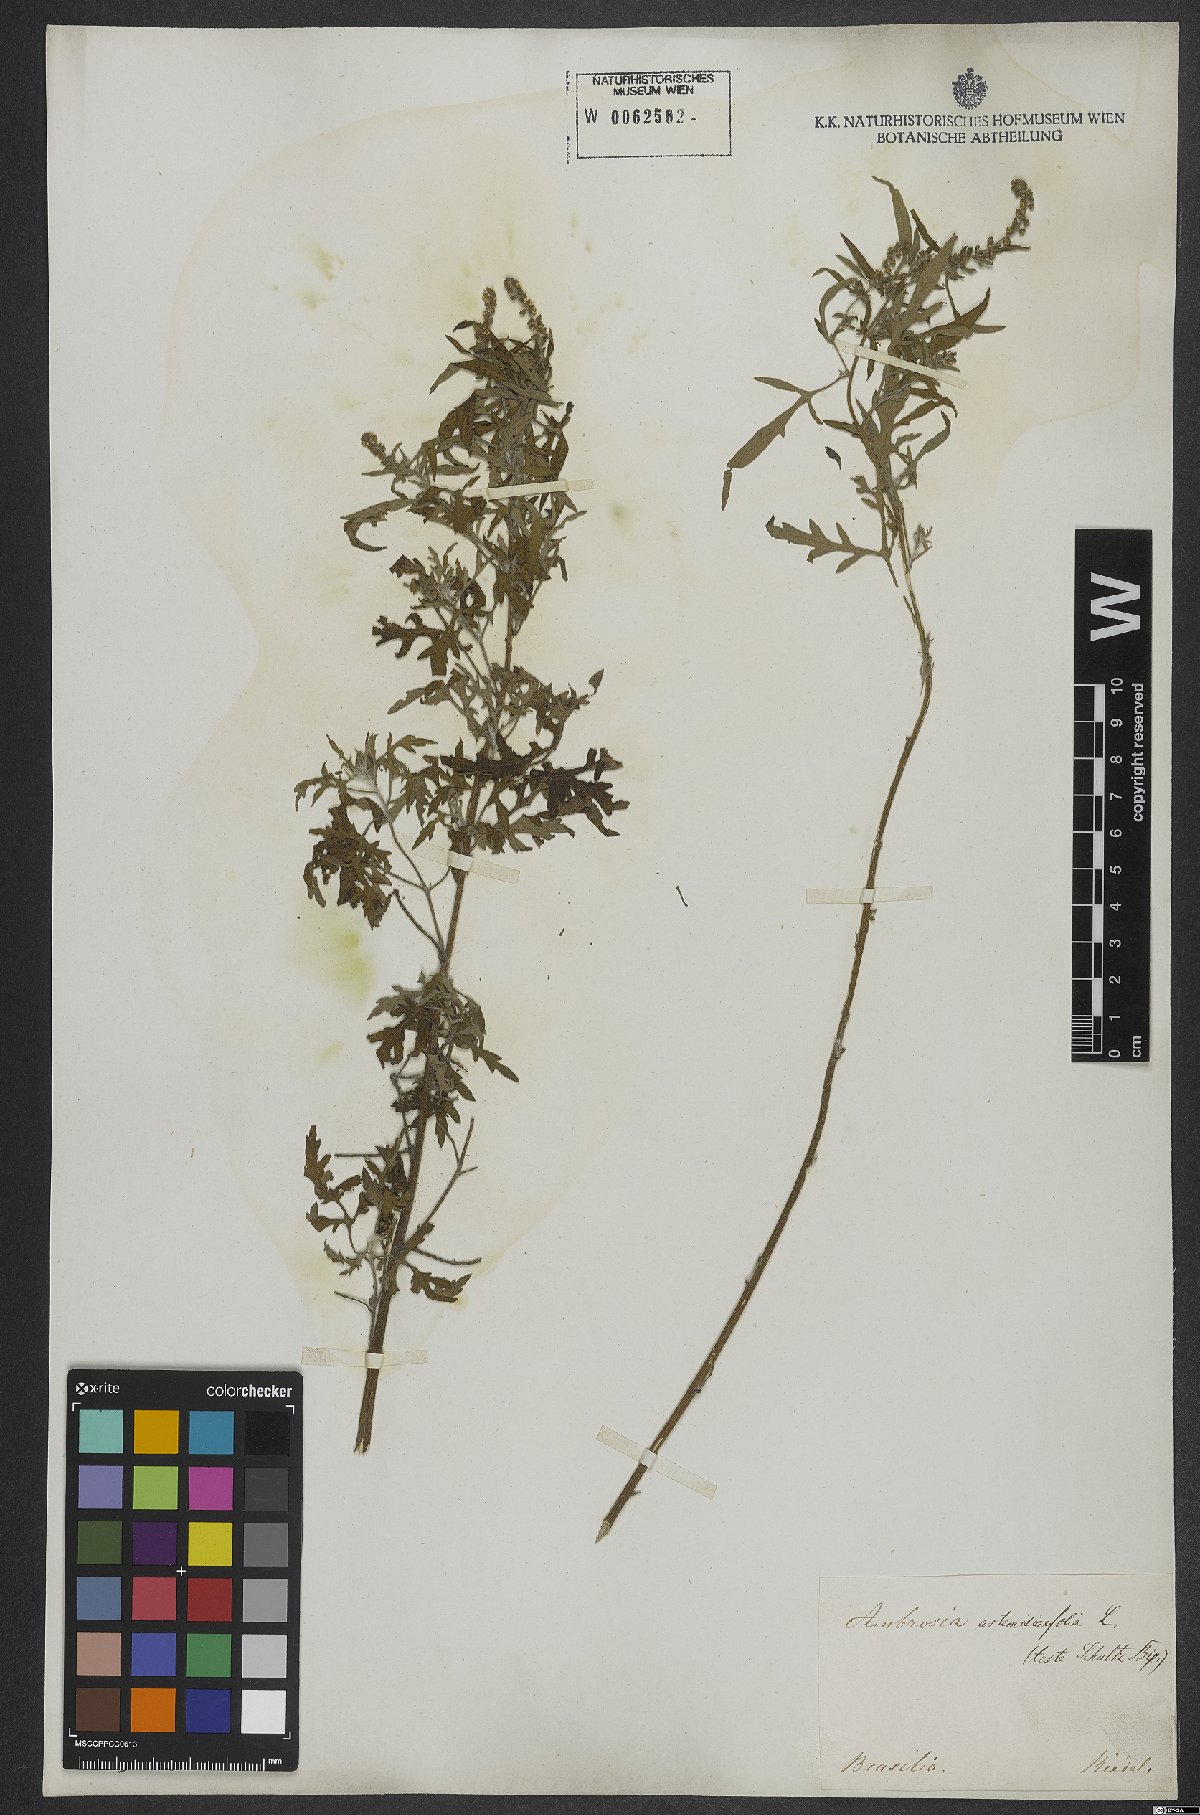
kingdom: Plantae
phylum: Tracheophyta
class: Magnoliopsida
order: Asterales
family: Asteraceae
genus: Ambrosia
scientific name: Ambrosia artemisiifolia
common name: Annual ragweed
